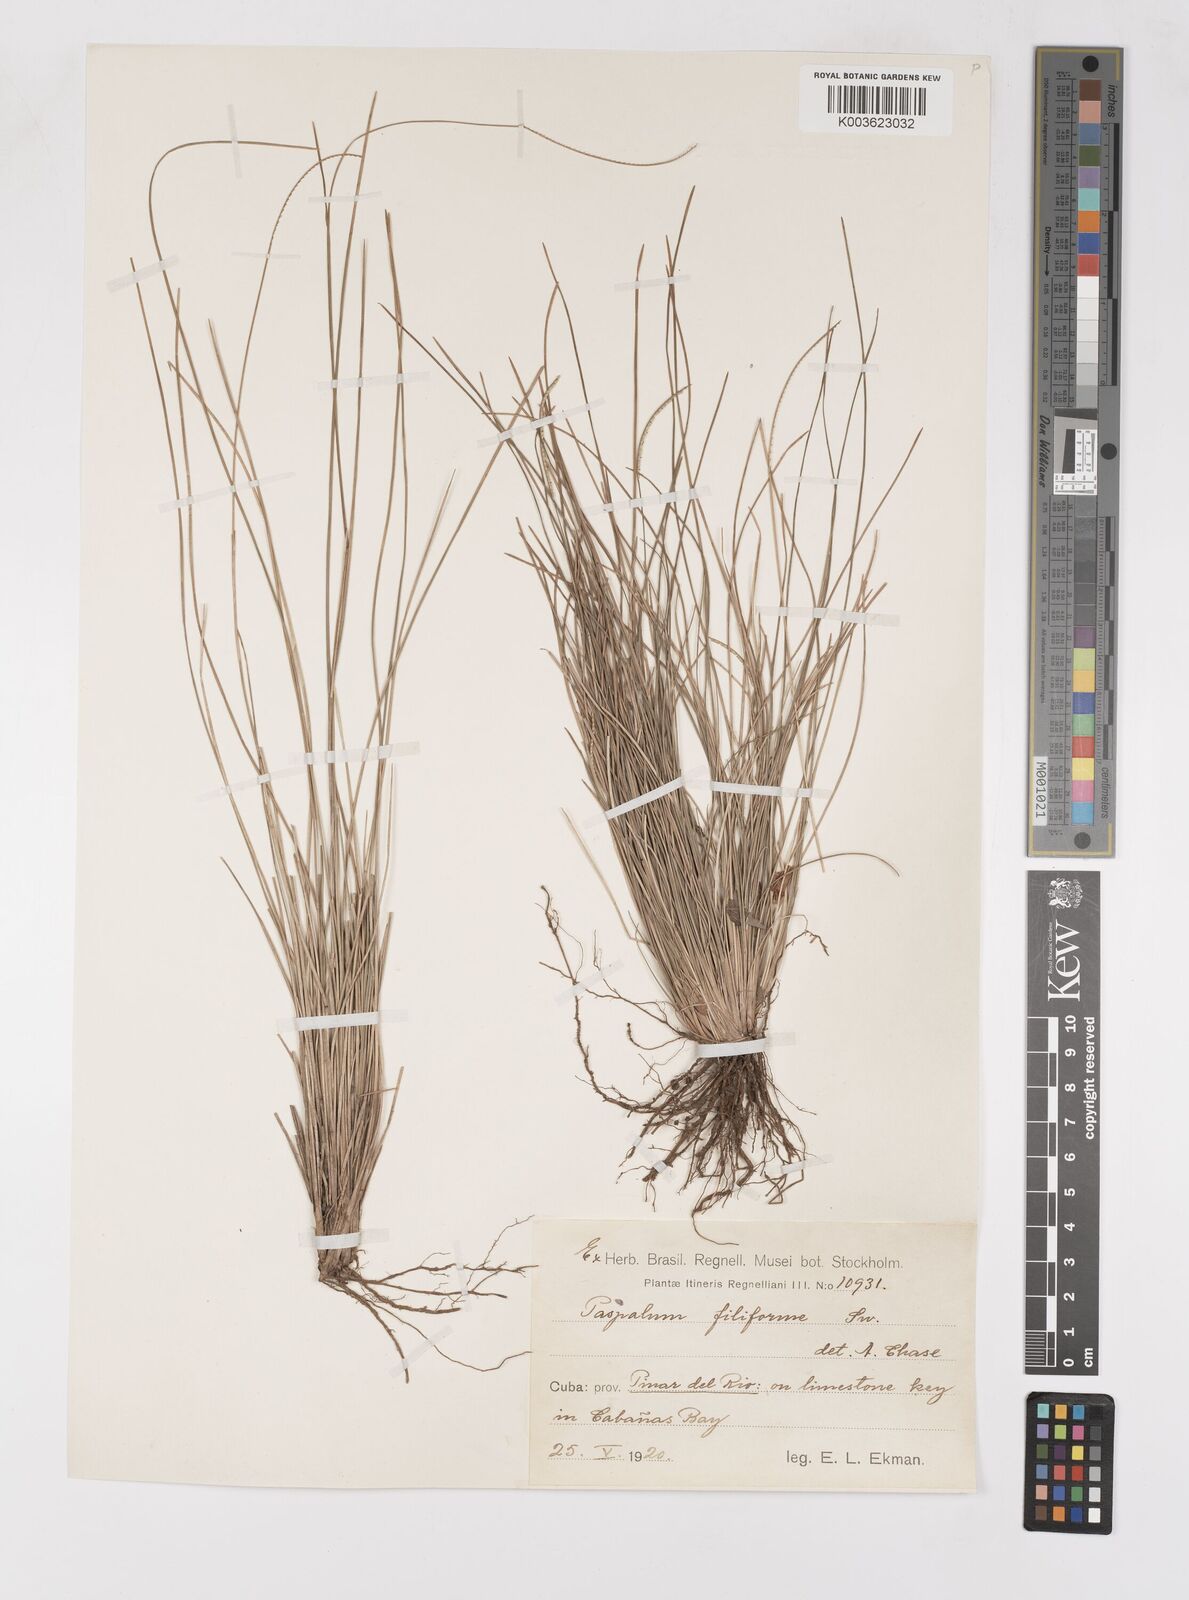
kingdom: Plantae
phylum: Tracheophyta
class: Liliopsida
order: Poales
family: Poaceae
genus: Paspalum
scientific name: Paspalum filiforme
